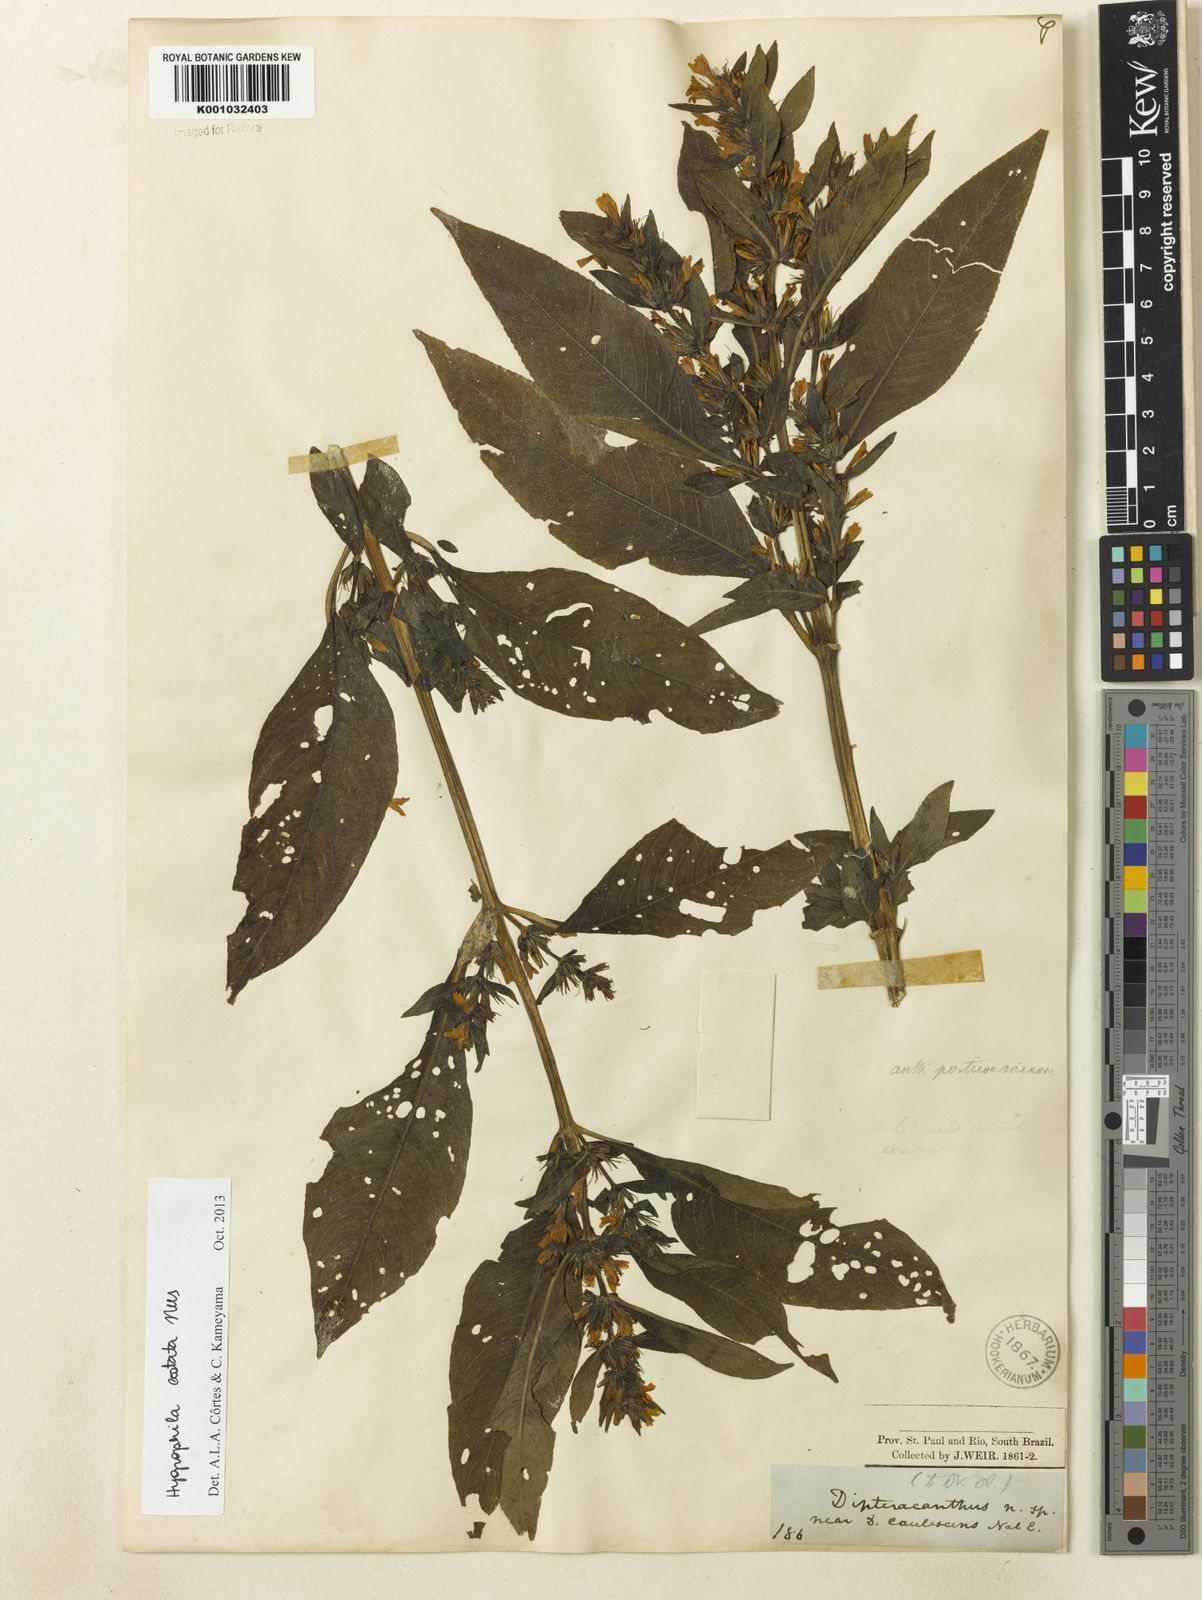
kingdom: Plantae
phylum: Tracheophyta
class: Magnoliopsida
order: Lamiales
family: Acanthaceae
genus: Hygrophila
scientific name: Hygrophila costata
